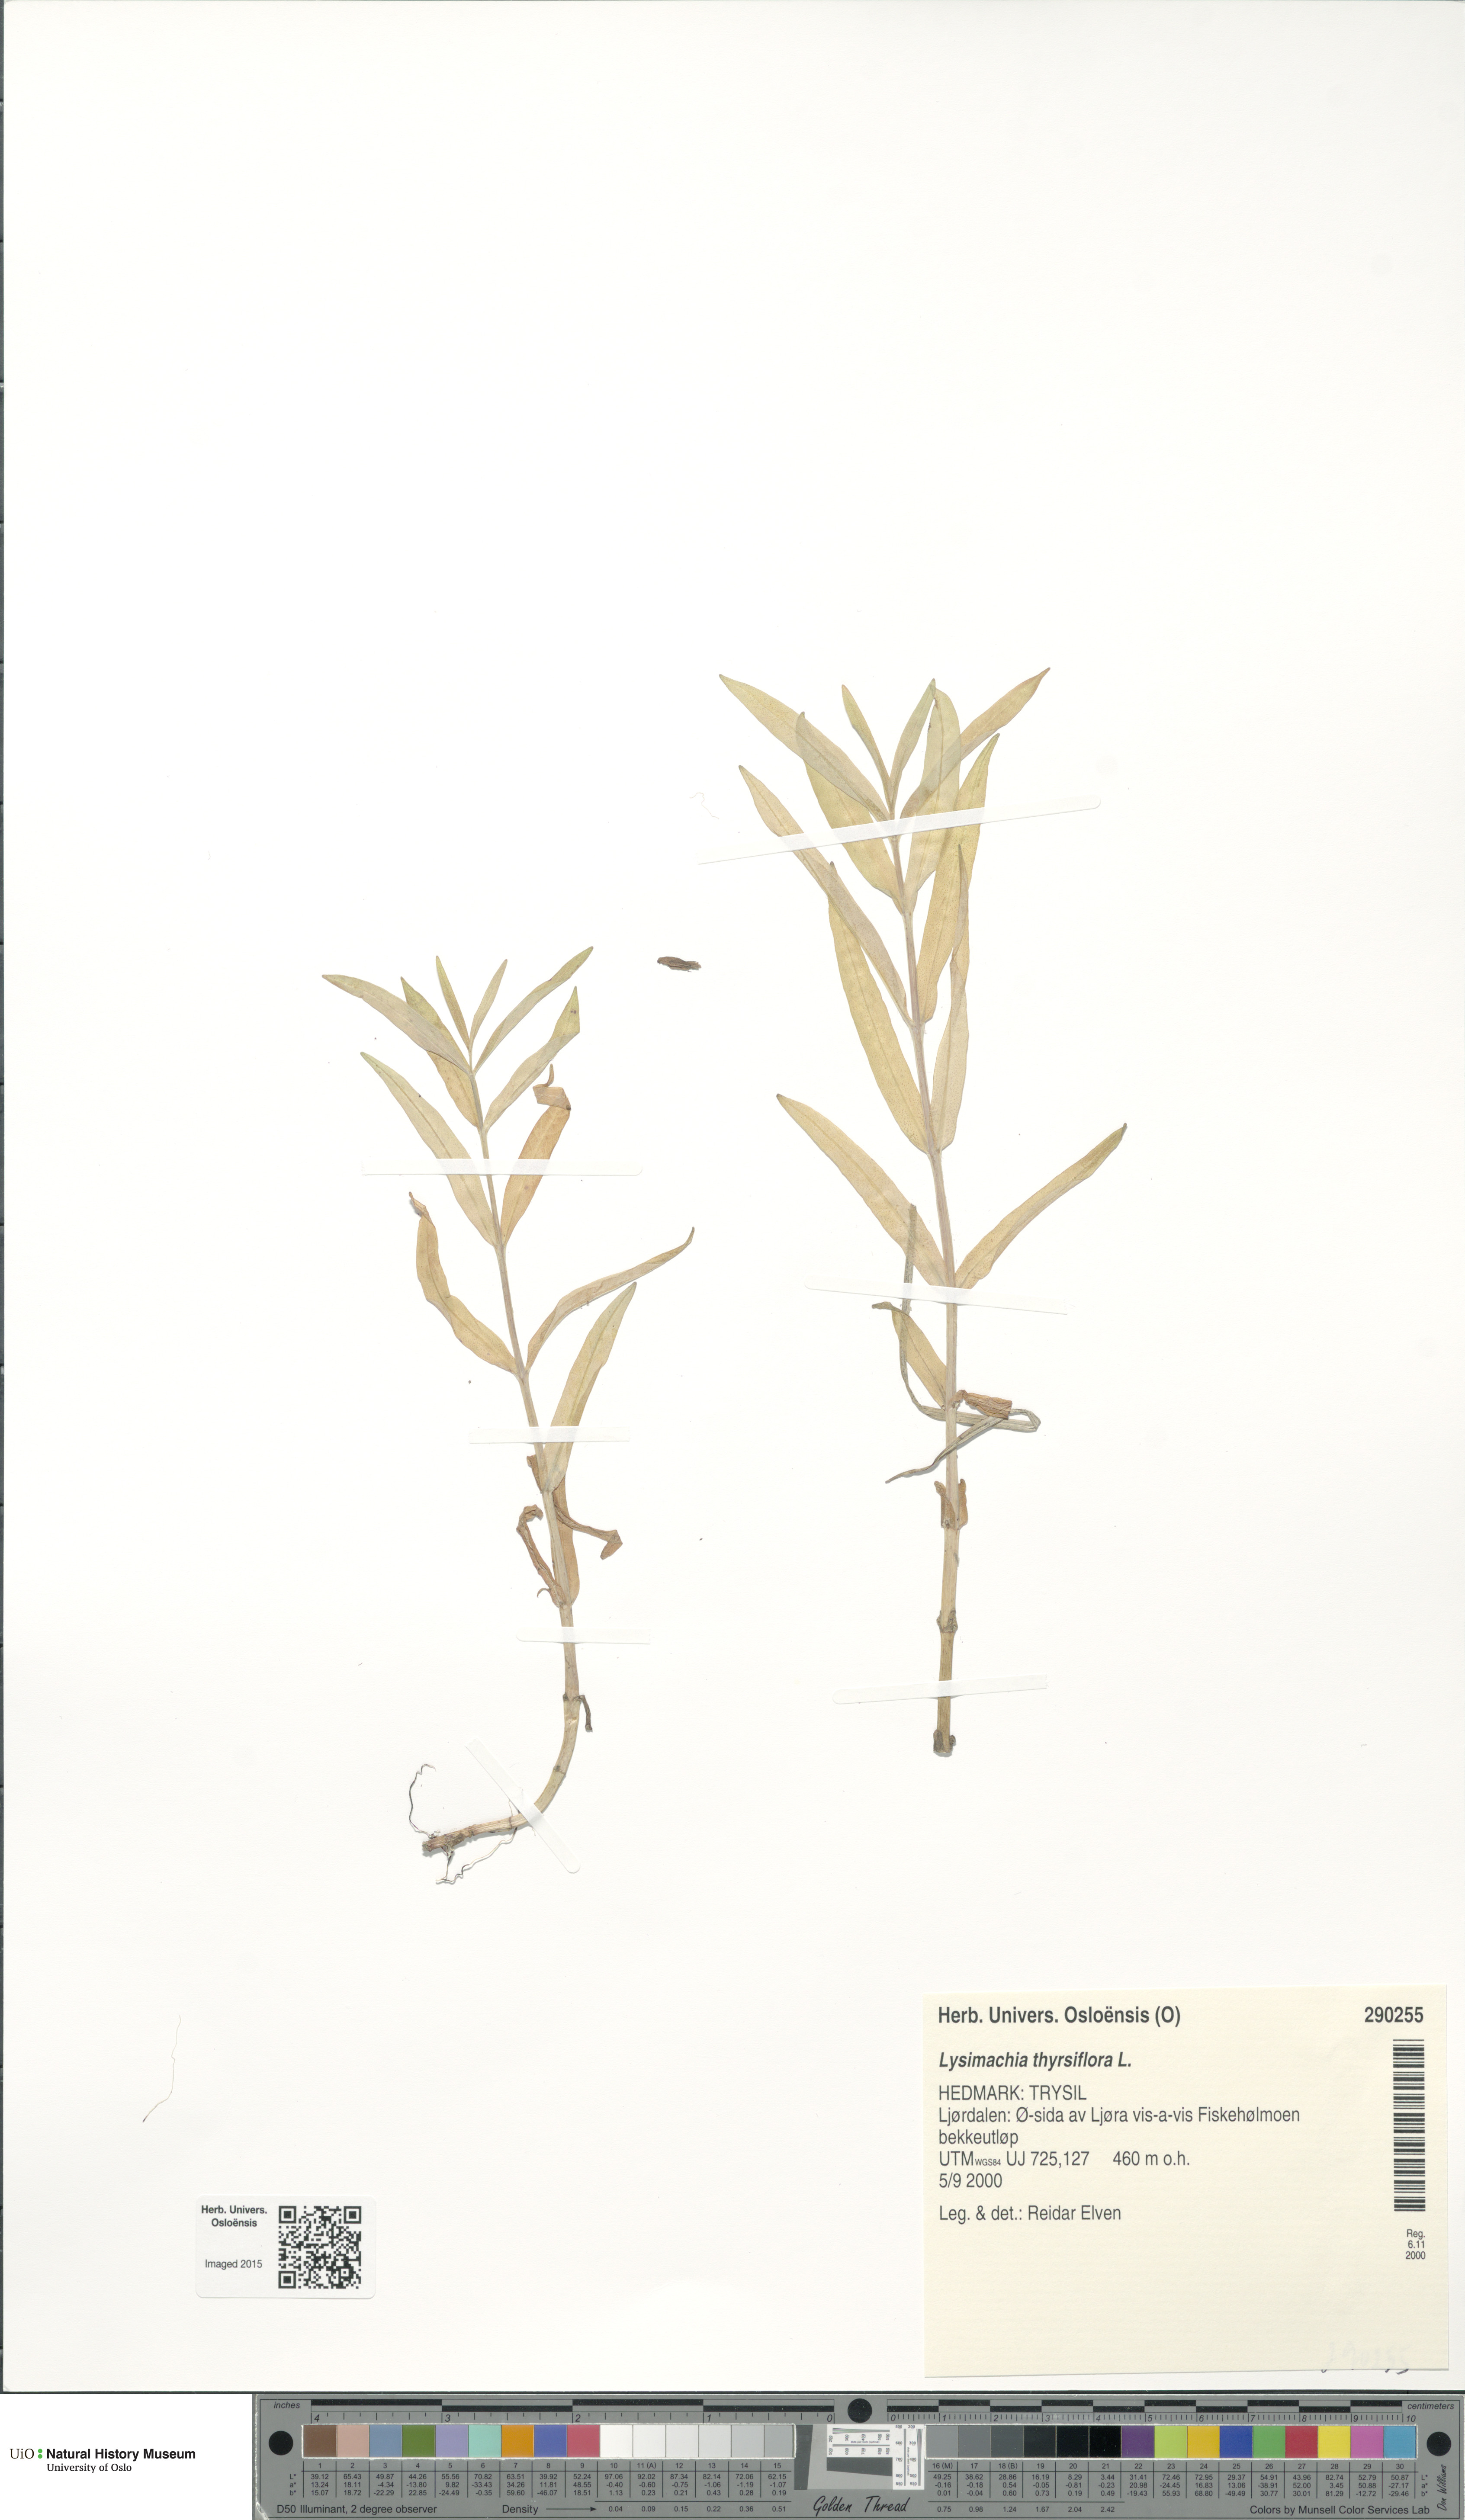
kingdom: Plantae
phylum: Tracheophyta
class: Magnoliopsida
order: Ericales
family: Primulaceae
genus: Lysimachia
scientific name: Lysimachia thyrsiflora
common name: Tufted loosestrife
